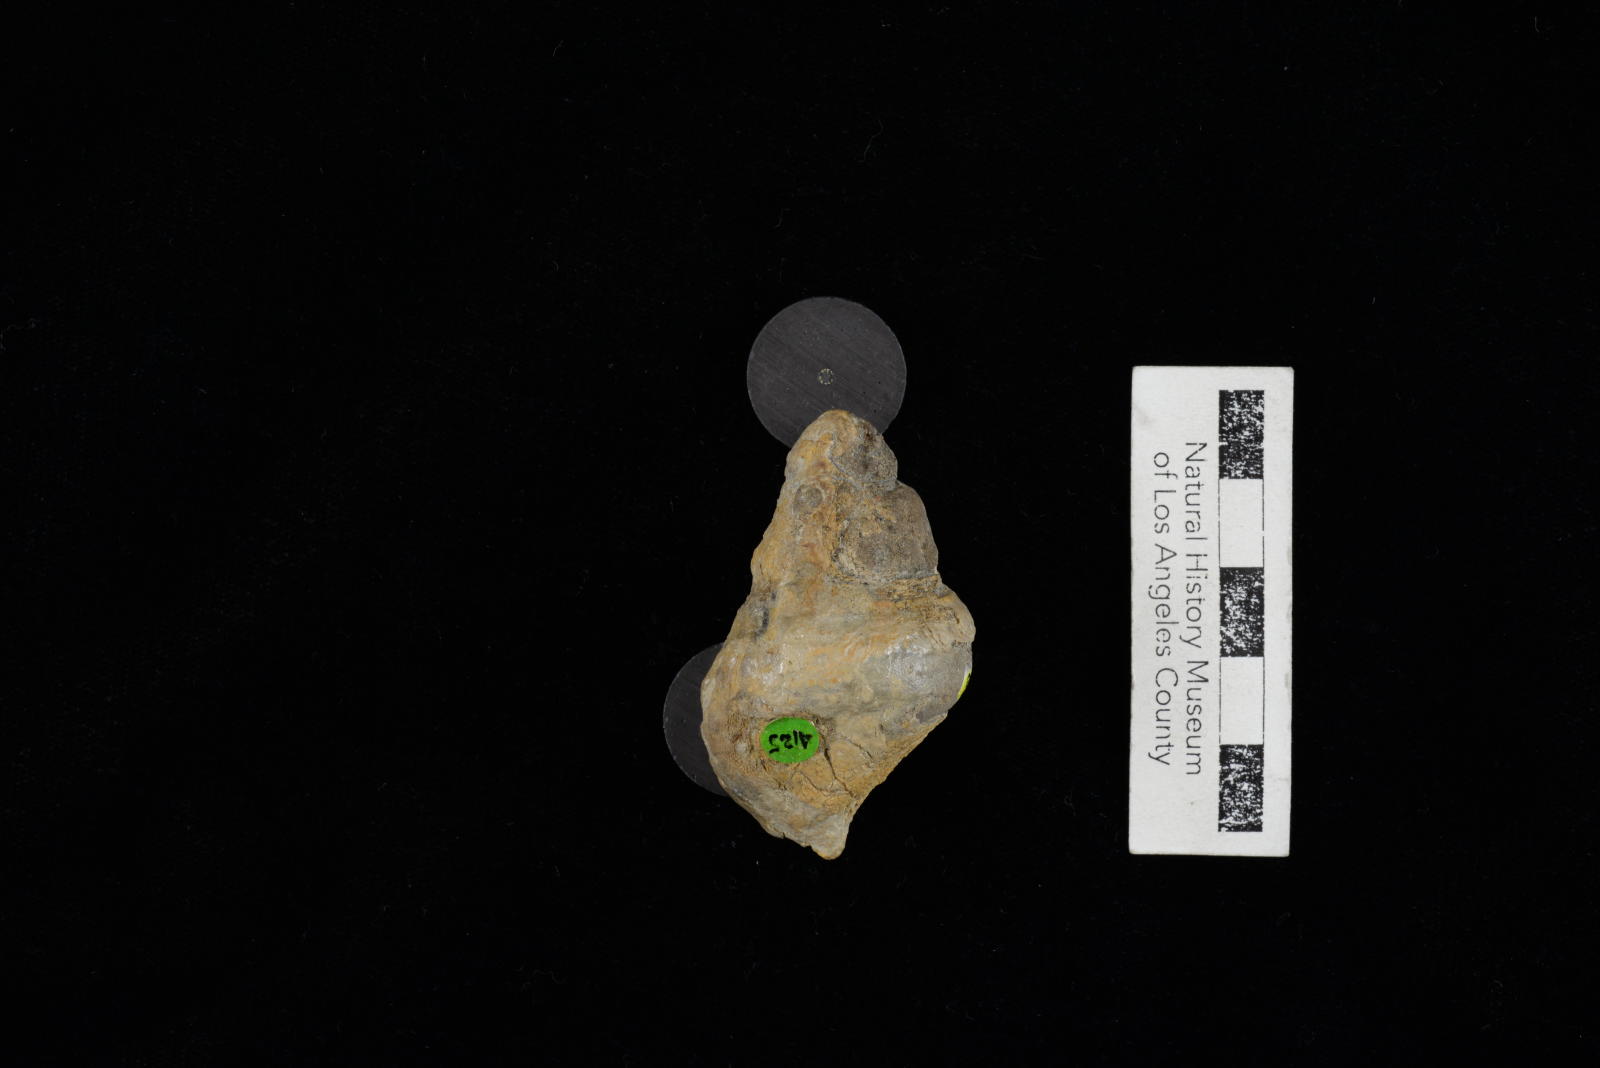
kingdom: Animalia
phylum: Mollusca
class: Gastropoda
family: Cerithiidae
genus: Bullamirifica
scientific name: Bullamirifica Pseudoglauconia ainiktos
